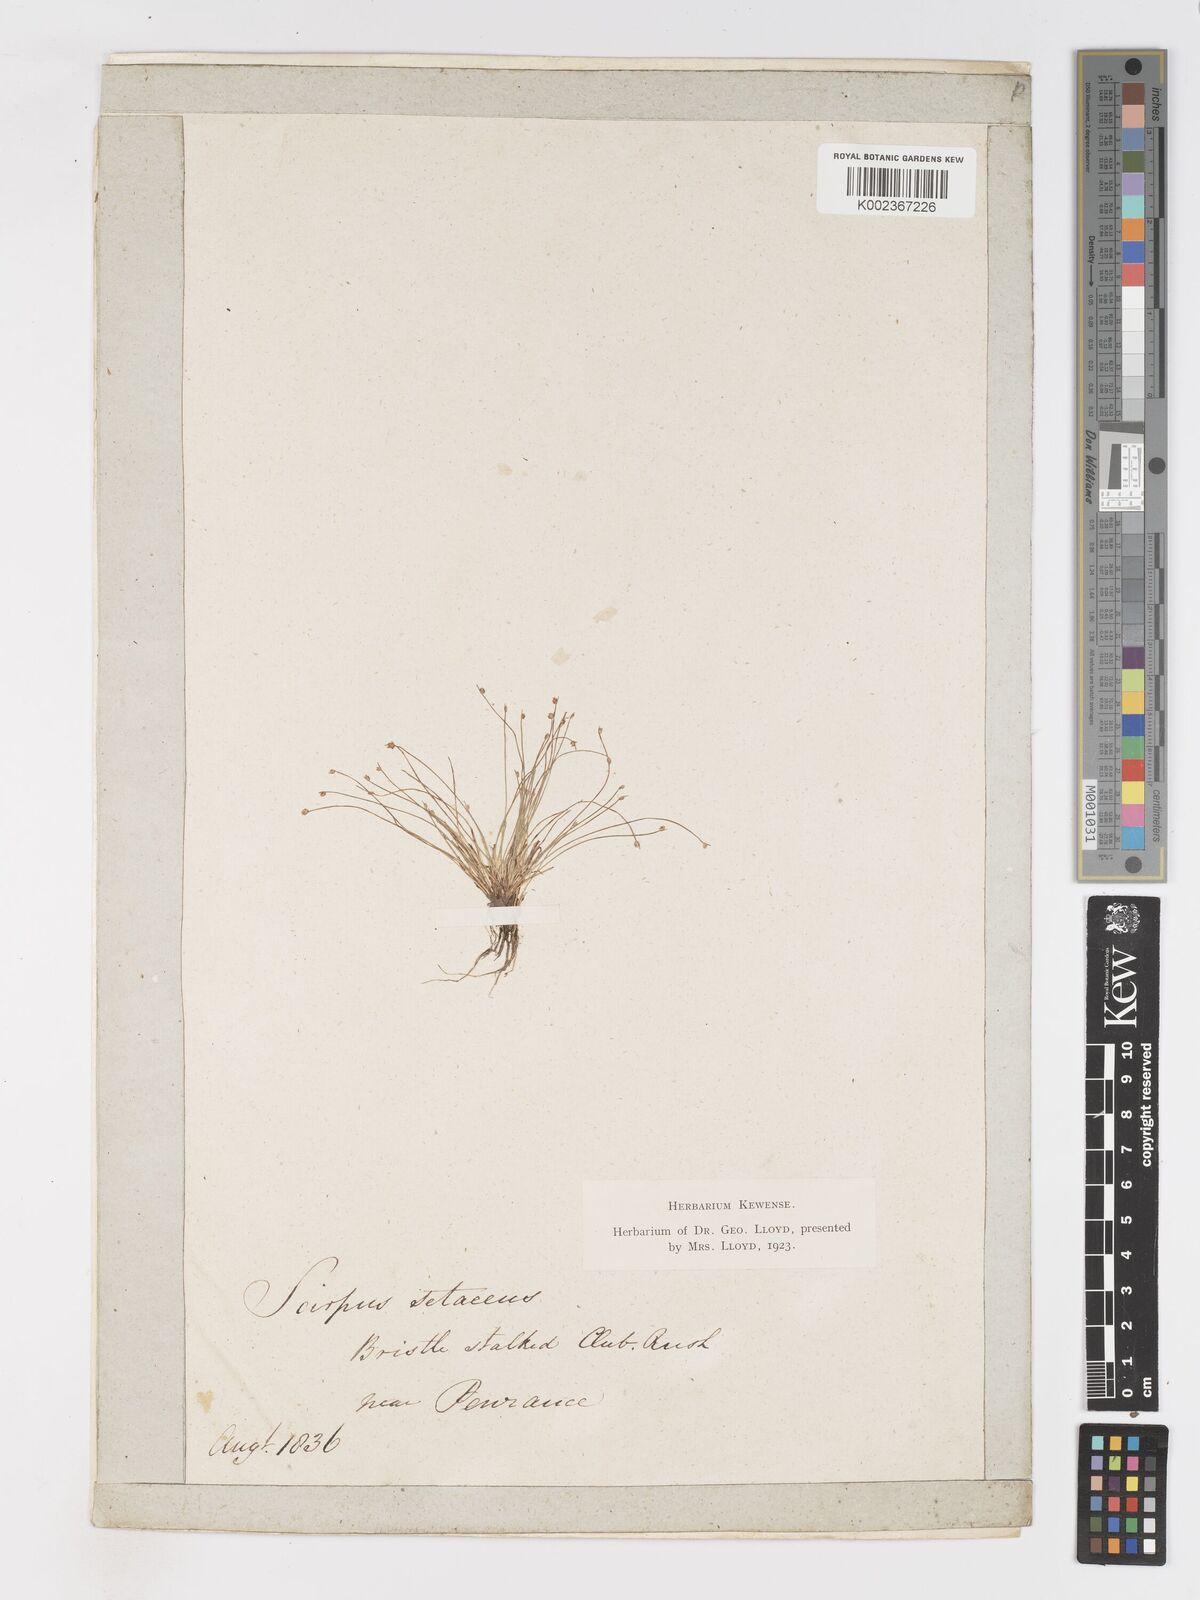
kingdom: Plantae
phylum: Tracheophyta
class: Liliopsida
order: Poales
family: Cyperaceae
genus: Isolepis
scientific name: Isolepis cernua
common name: Slender club-rush
